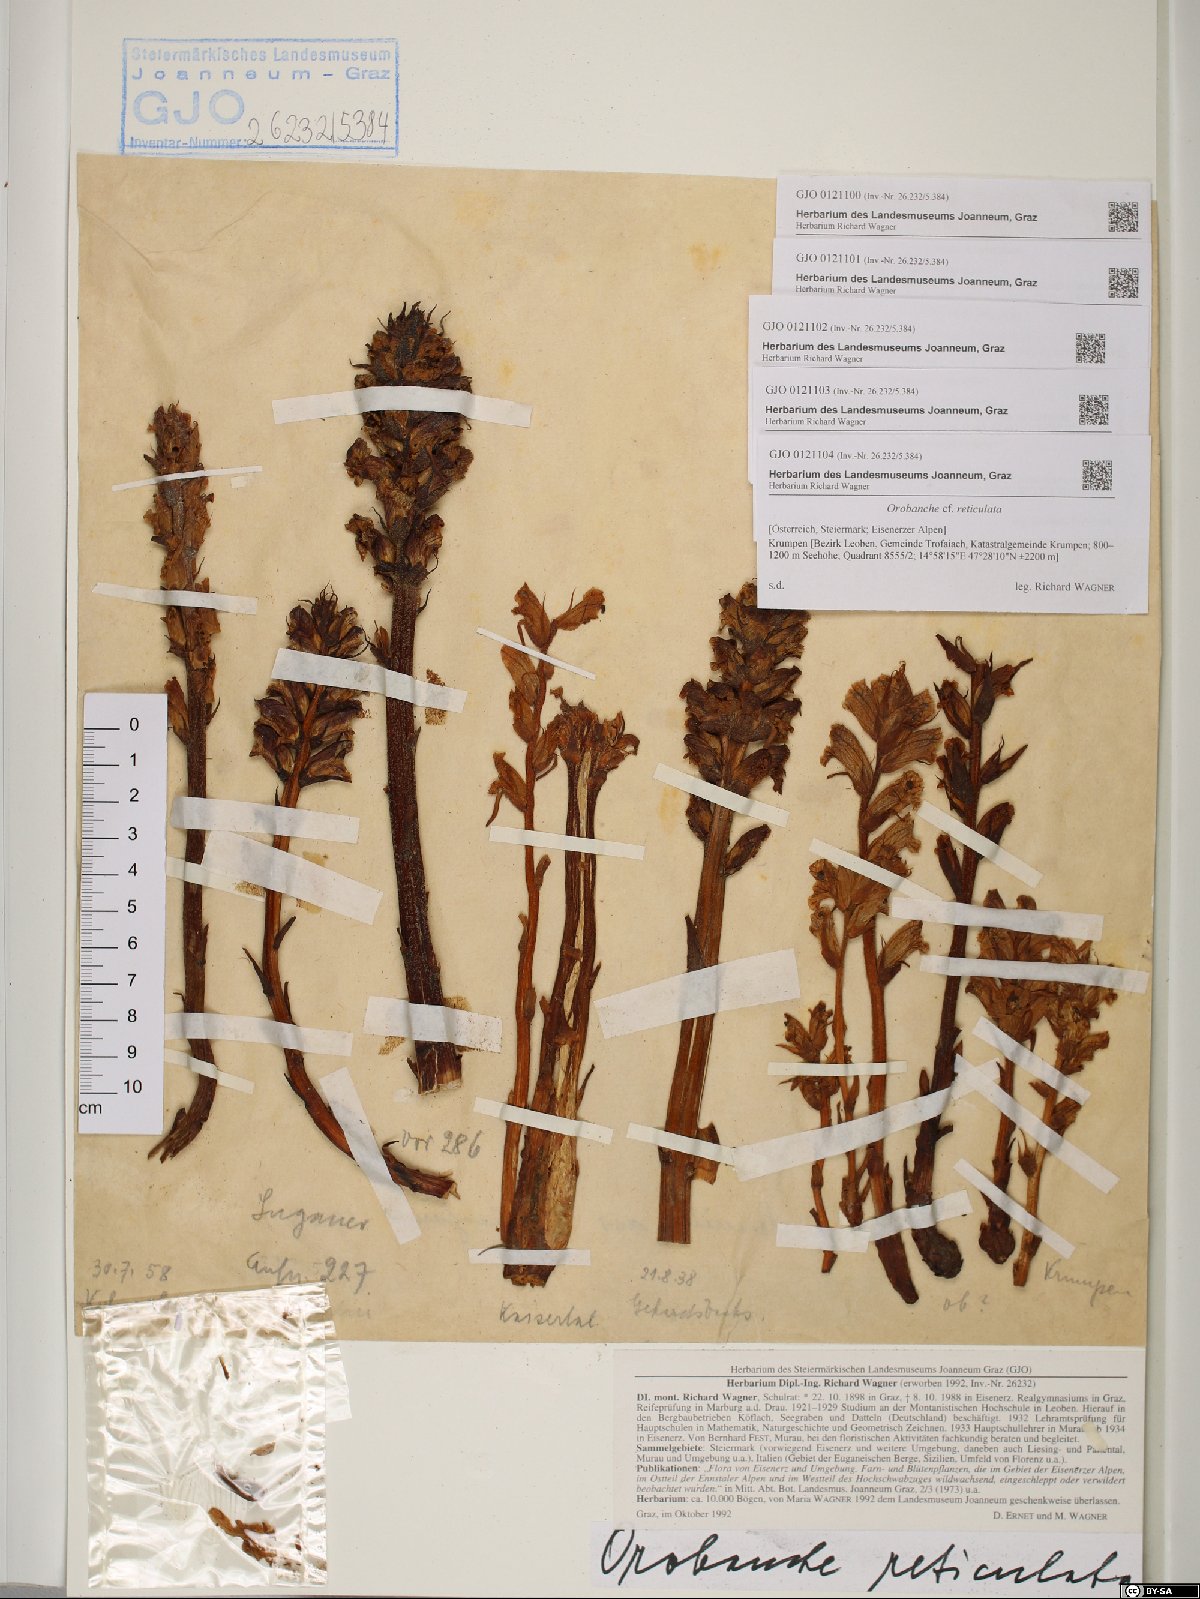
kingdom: Plantae
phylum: Tracheophyta
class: Magnoliopsida
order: Lamiales
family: Orobanchaceae
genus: Orobanche
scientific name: Orobanche reticulata
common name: Thistle broomrape
